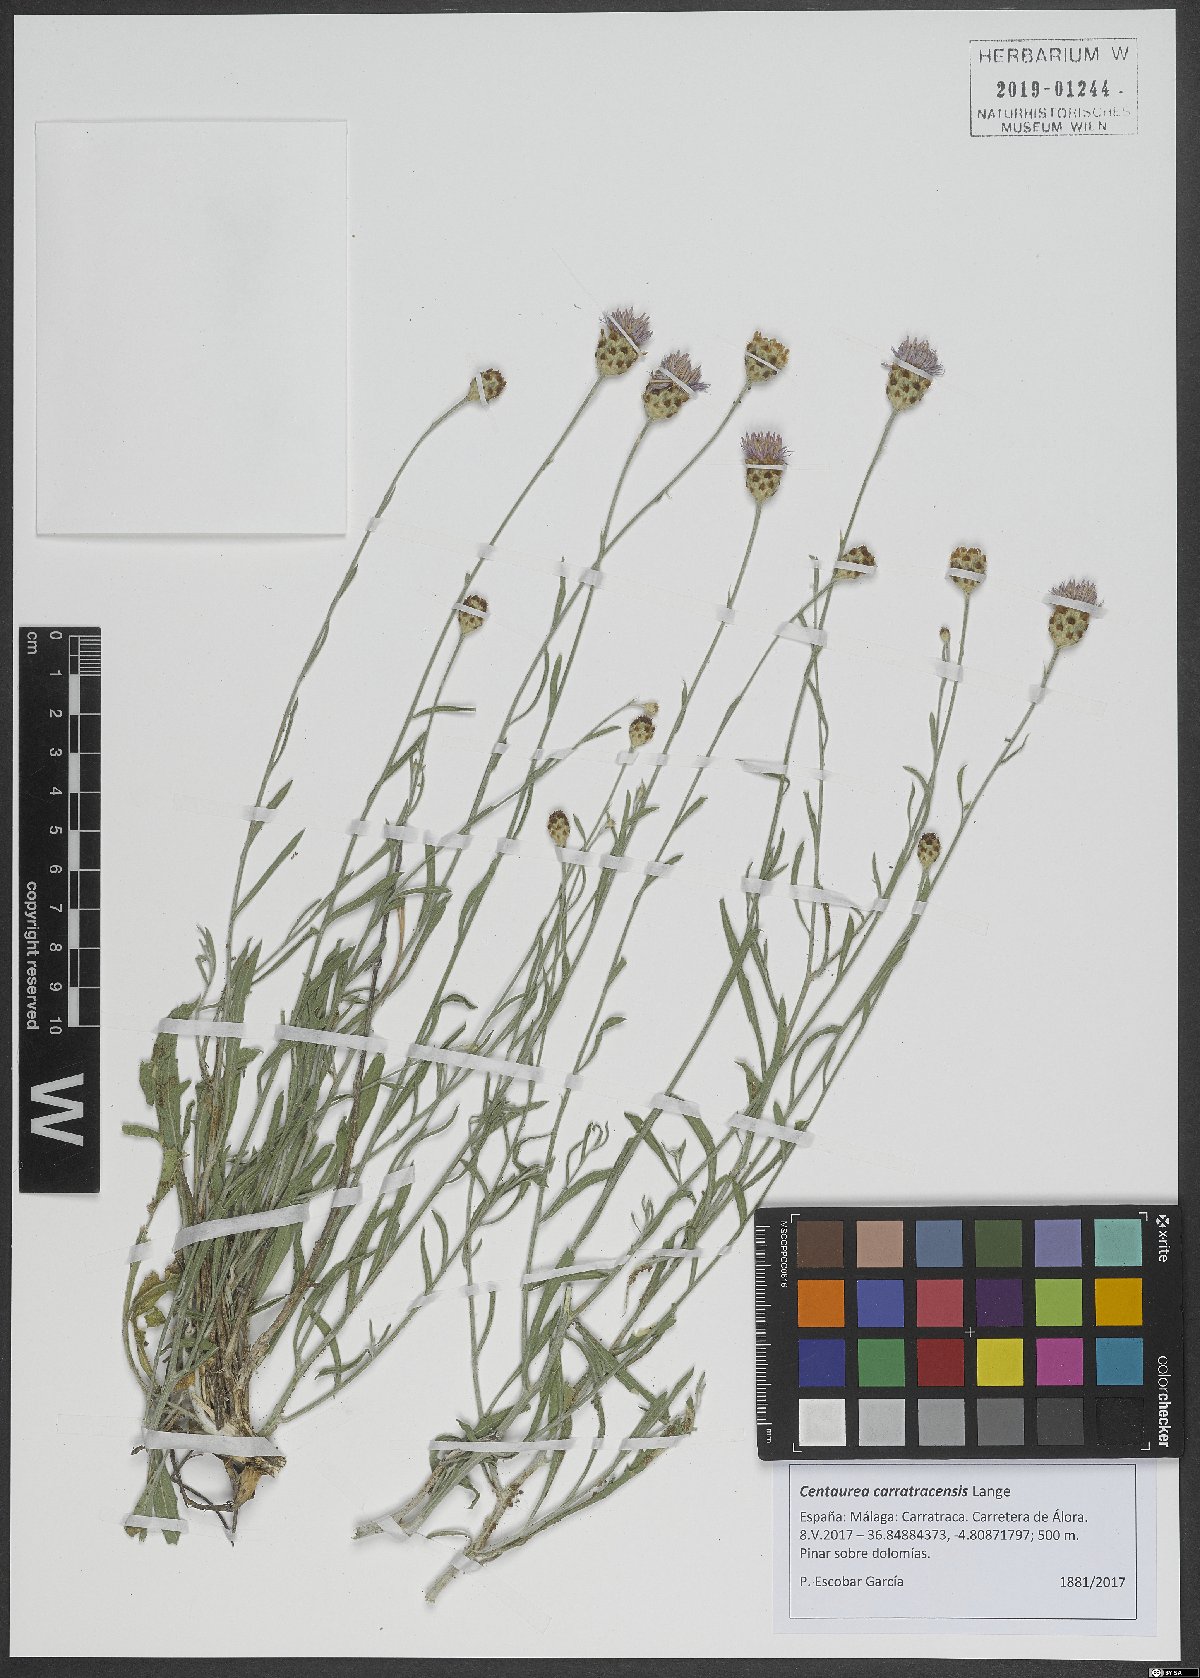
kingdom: Plantae
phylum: Tracheophyta
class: Magnoliopsida
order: Asterales
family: Asteraceae
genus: Centaurea
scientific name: Centaurea carratracensis
